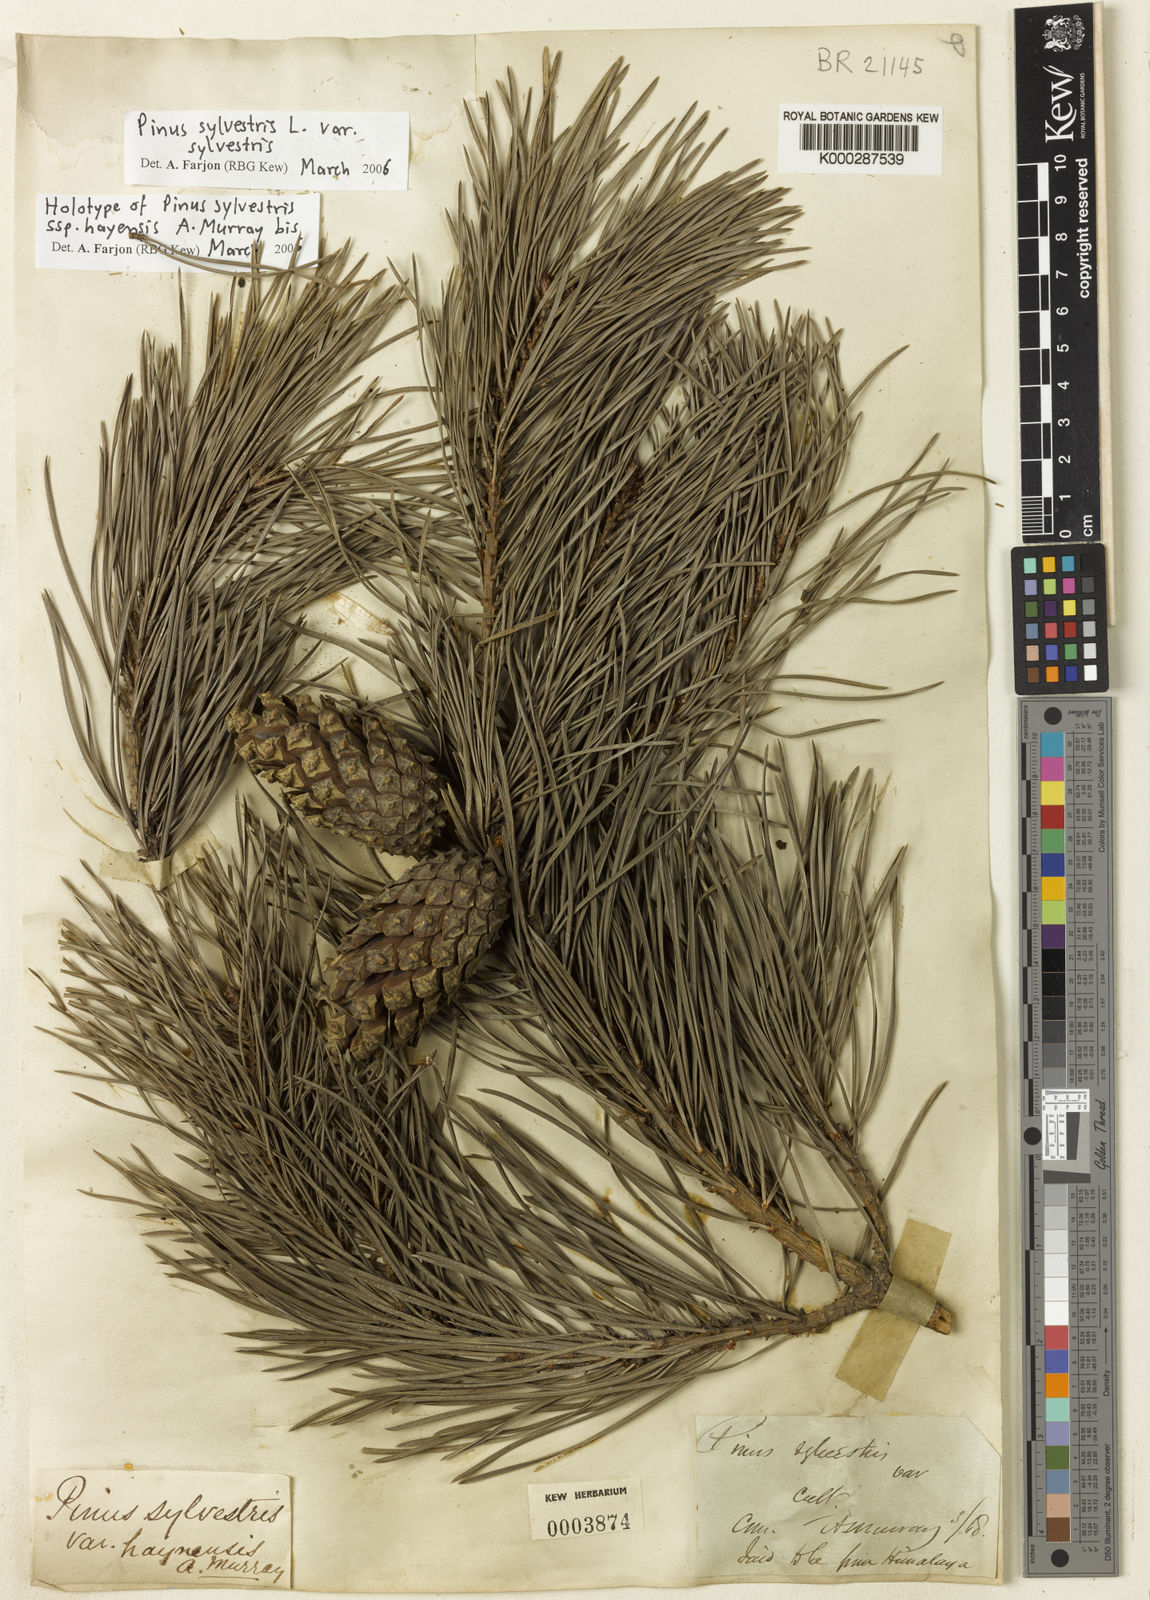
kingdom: Plantae
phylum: Tracheophyta
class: Pinopsida
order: Pinales
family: Pinaceae
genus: Pinus
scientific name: Pinus sylvestris
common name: Scots pine
